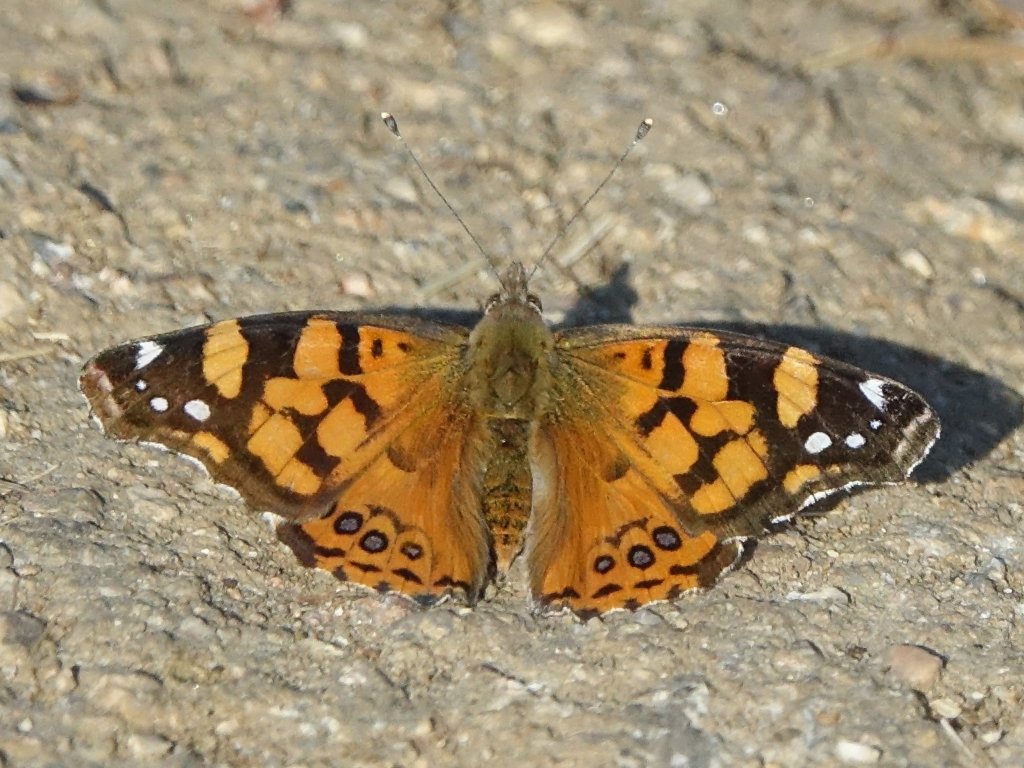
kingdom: Animalia
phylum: Arthropoda
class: Insecta
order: Lepidoptera
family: Nymphalidae
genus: Vanessa
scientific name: Vanessa annabella
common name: West Coast Lady
